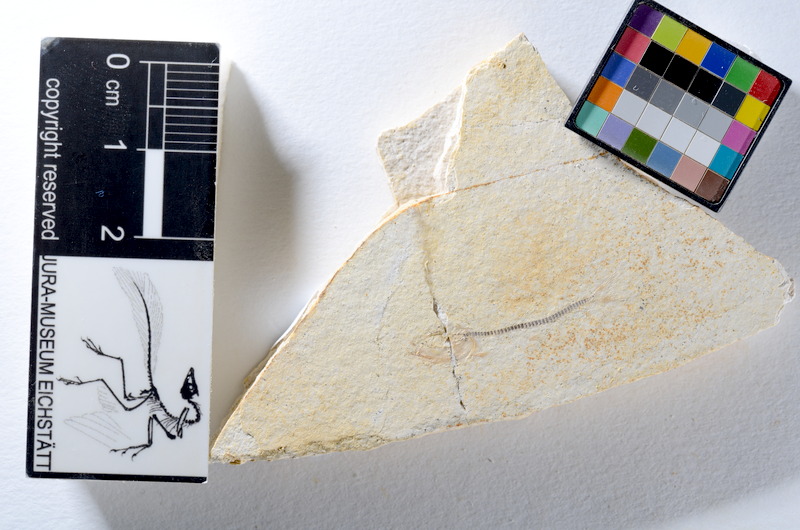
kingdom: Animalia
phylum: Chordata
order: Salmoniformes
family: Orthogonikleithridae
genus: Orthogonikleithrus
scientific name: Orthogonikleithrus hoelli
